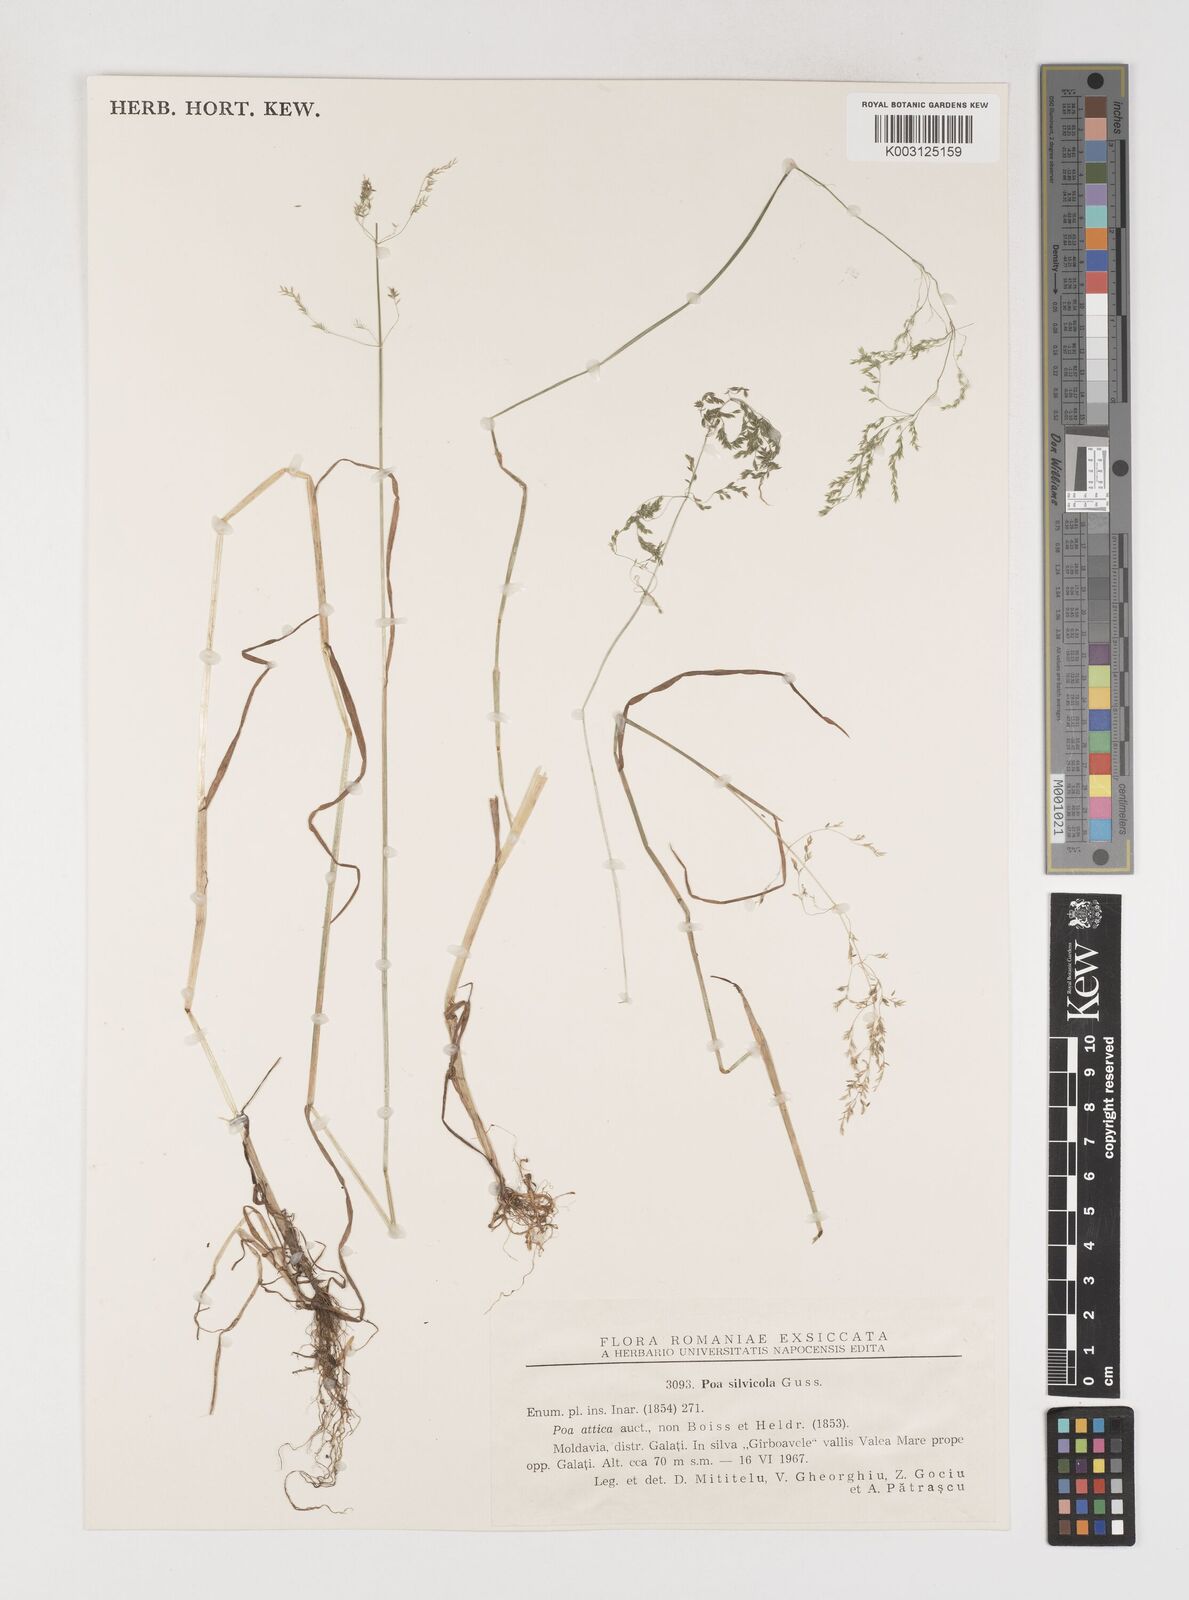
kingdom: Plantae
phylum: Tracheophyta
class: Liliopsida
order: Poales
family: Poaceae
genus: Poa
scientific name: Poa trivialis
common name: Rough bluegrass
